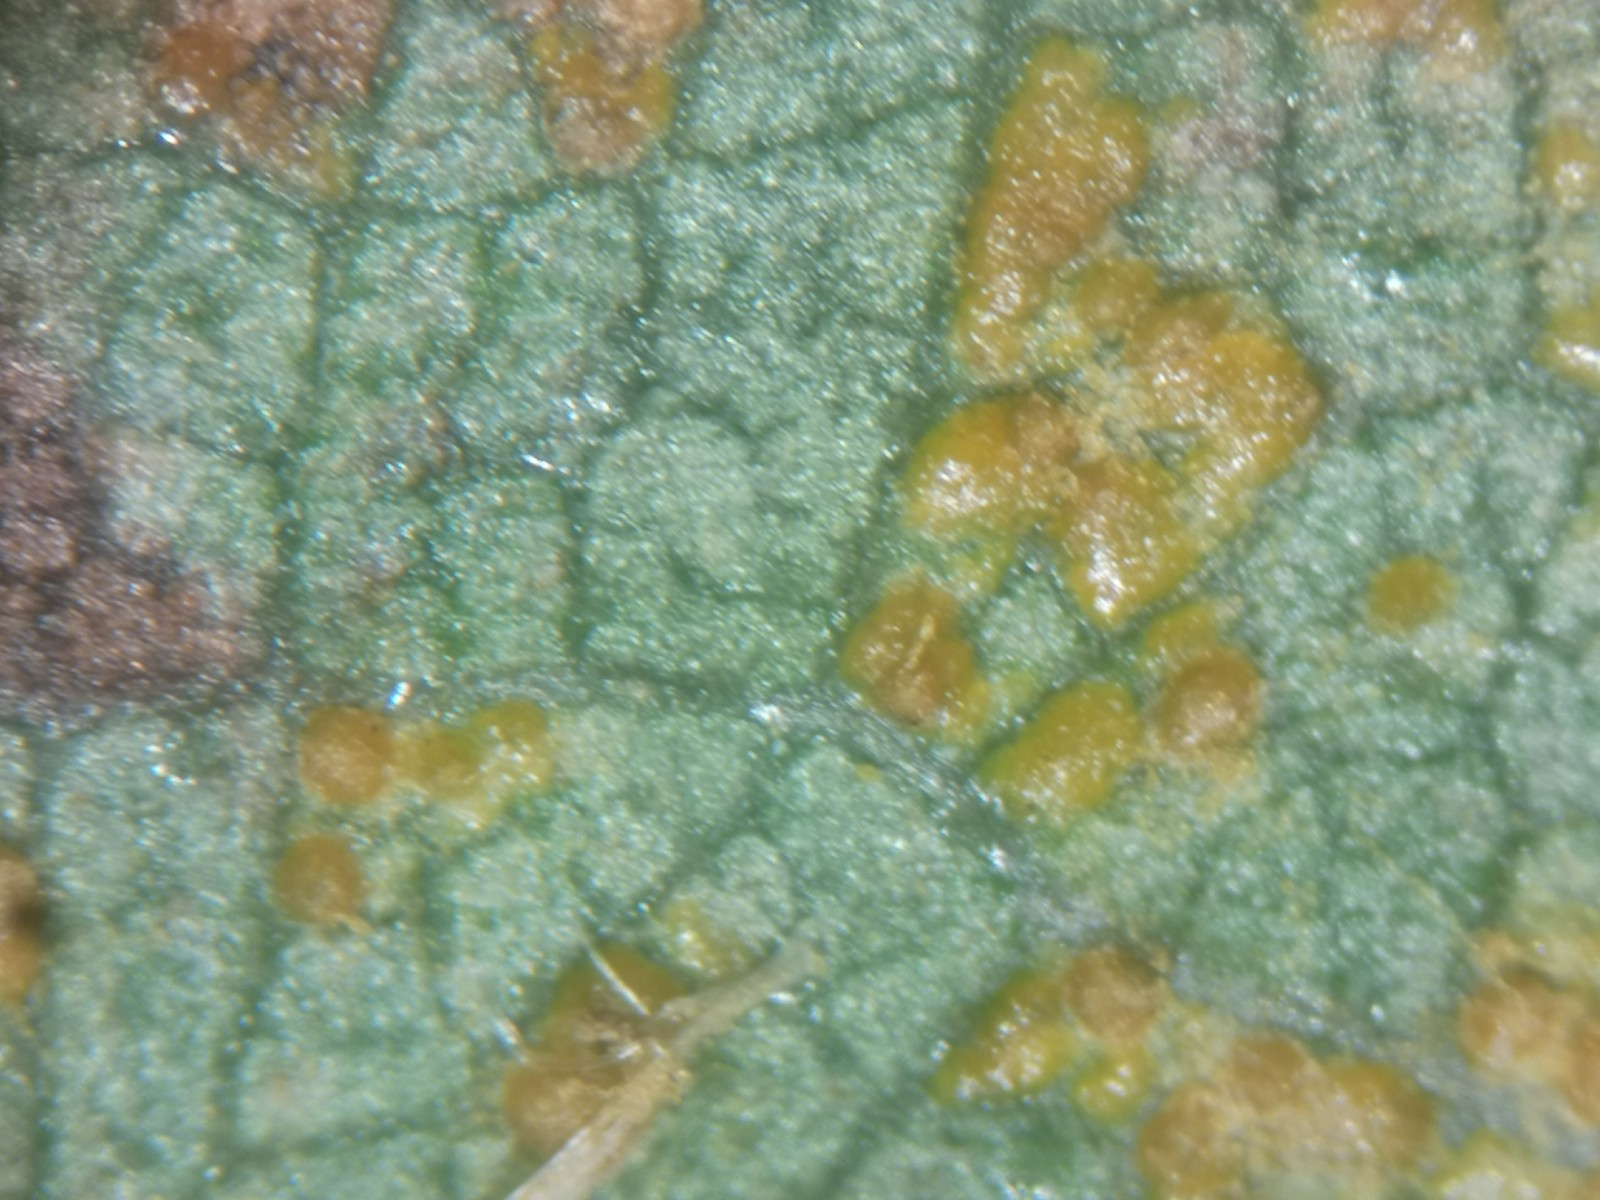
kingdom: Fungi
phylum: Basidiomycota
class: Pucciniomycetes
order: Pucciniales
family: Pucciniastraceae
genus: Melampsoridium
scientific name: Melampsoridium betulinum
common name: Birch rust
